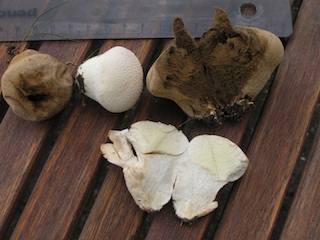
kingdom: Fungi
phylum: Basidiomycota
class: Agaricomycetes
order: Agaricales
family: Lycoperdaceae
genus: Lycoperdon
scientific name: Lycoperdon pratense
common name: flad støvbold
